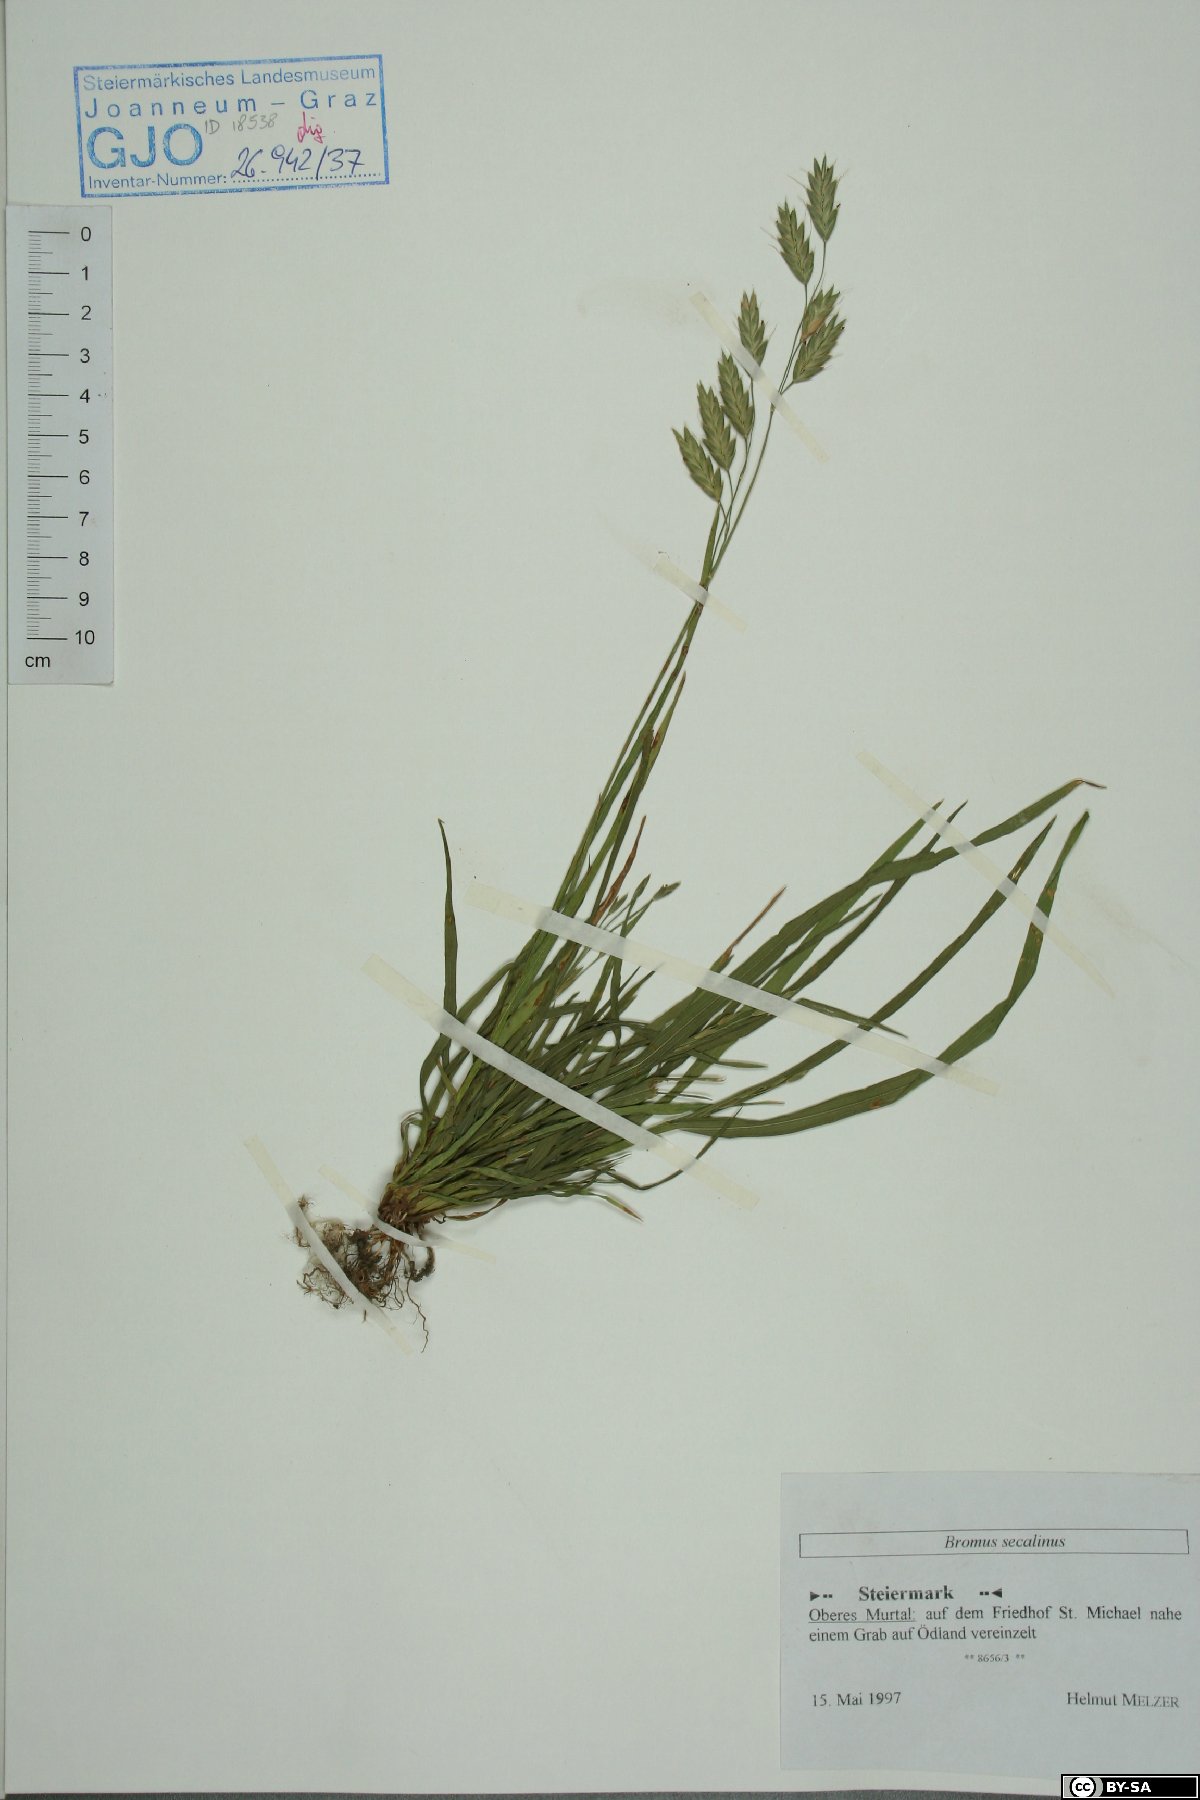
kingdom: Plantae
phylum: Tracheophyta
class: Liliopsida
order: Poales
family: Poaceae
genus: Bromus
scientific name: Bromus secalinus
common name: Rye brome
